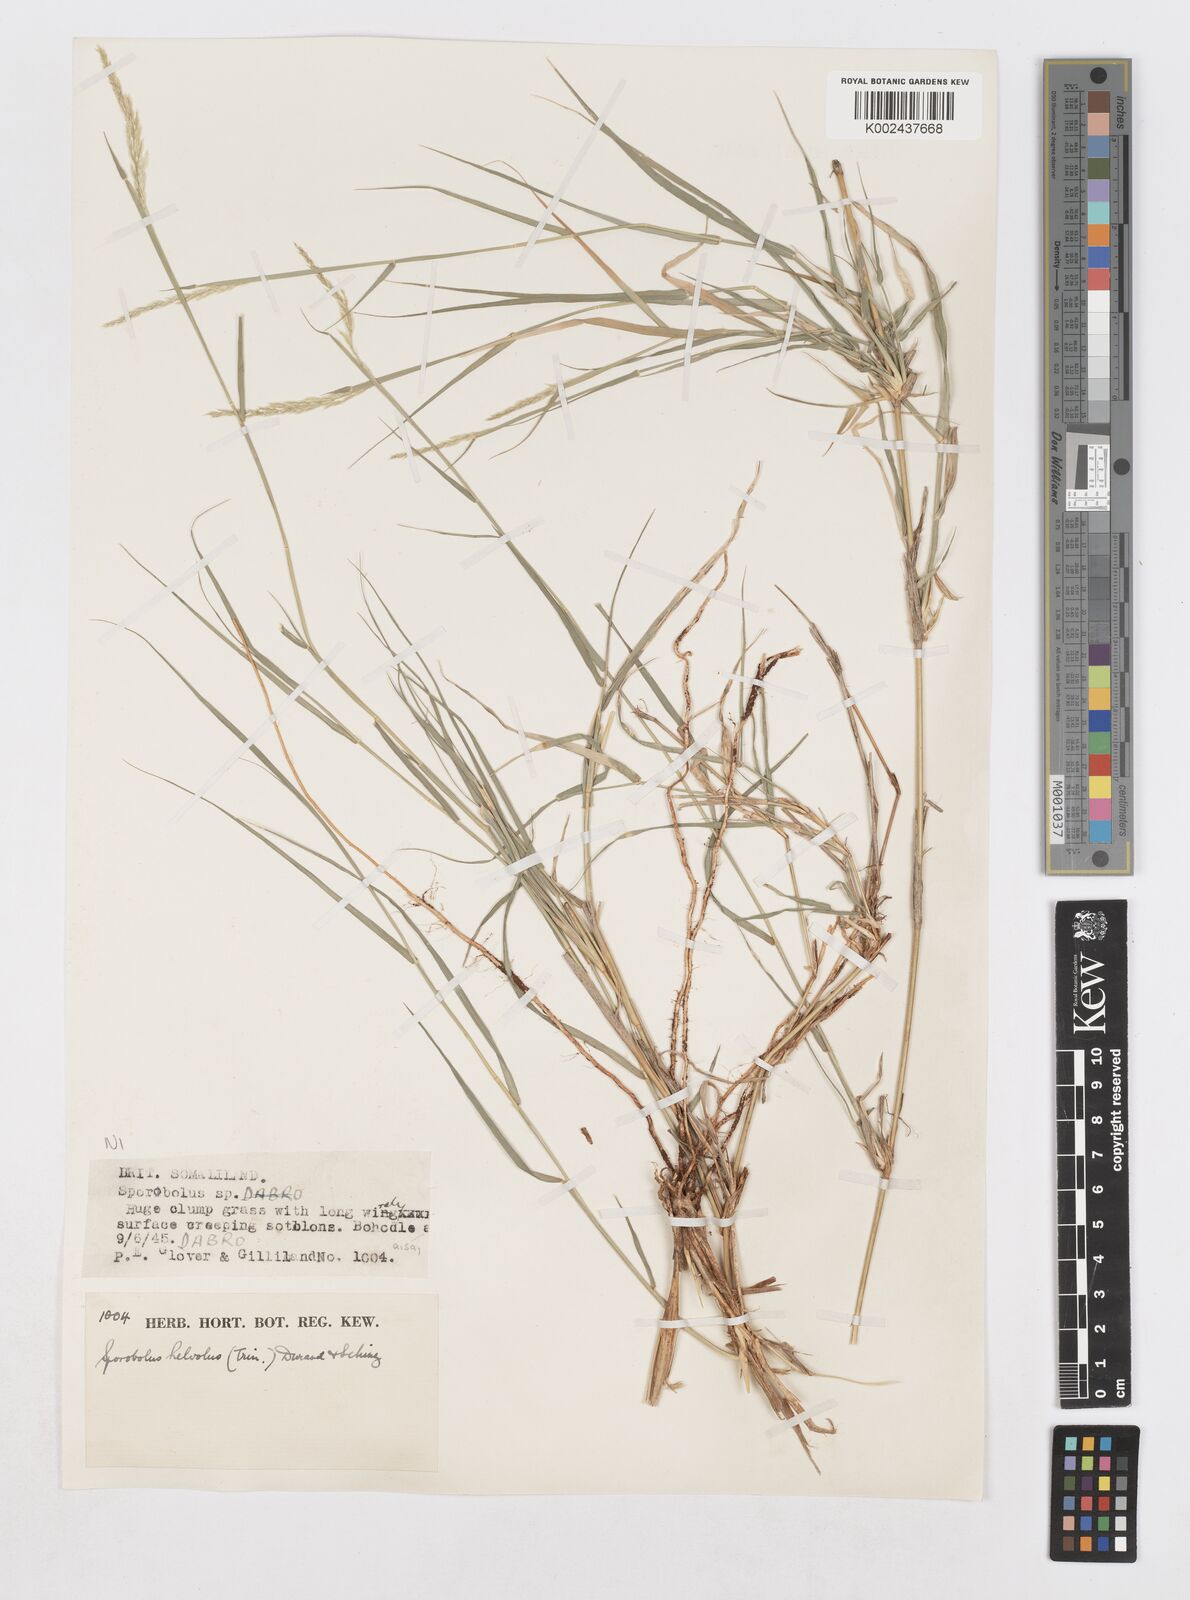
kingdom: Plantae
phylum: Tracheophyta
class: Liliopsida
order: Poales
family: Poaceae
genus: Sporobolus
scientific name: Sporobolus helvolus
